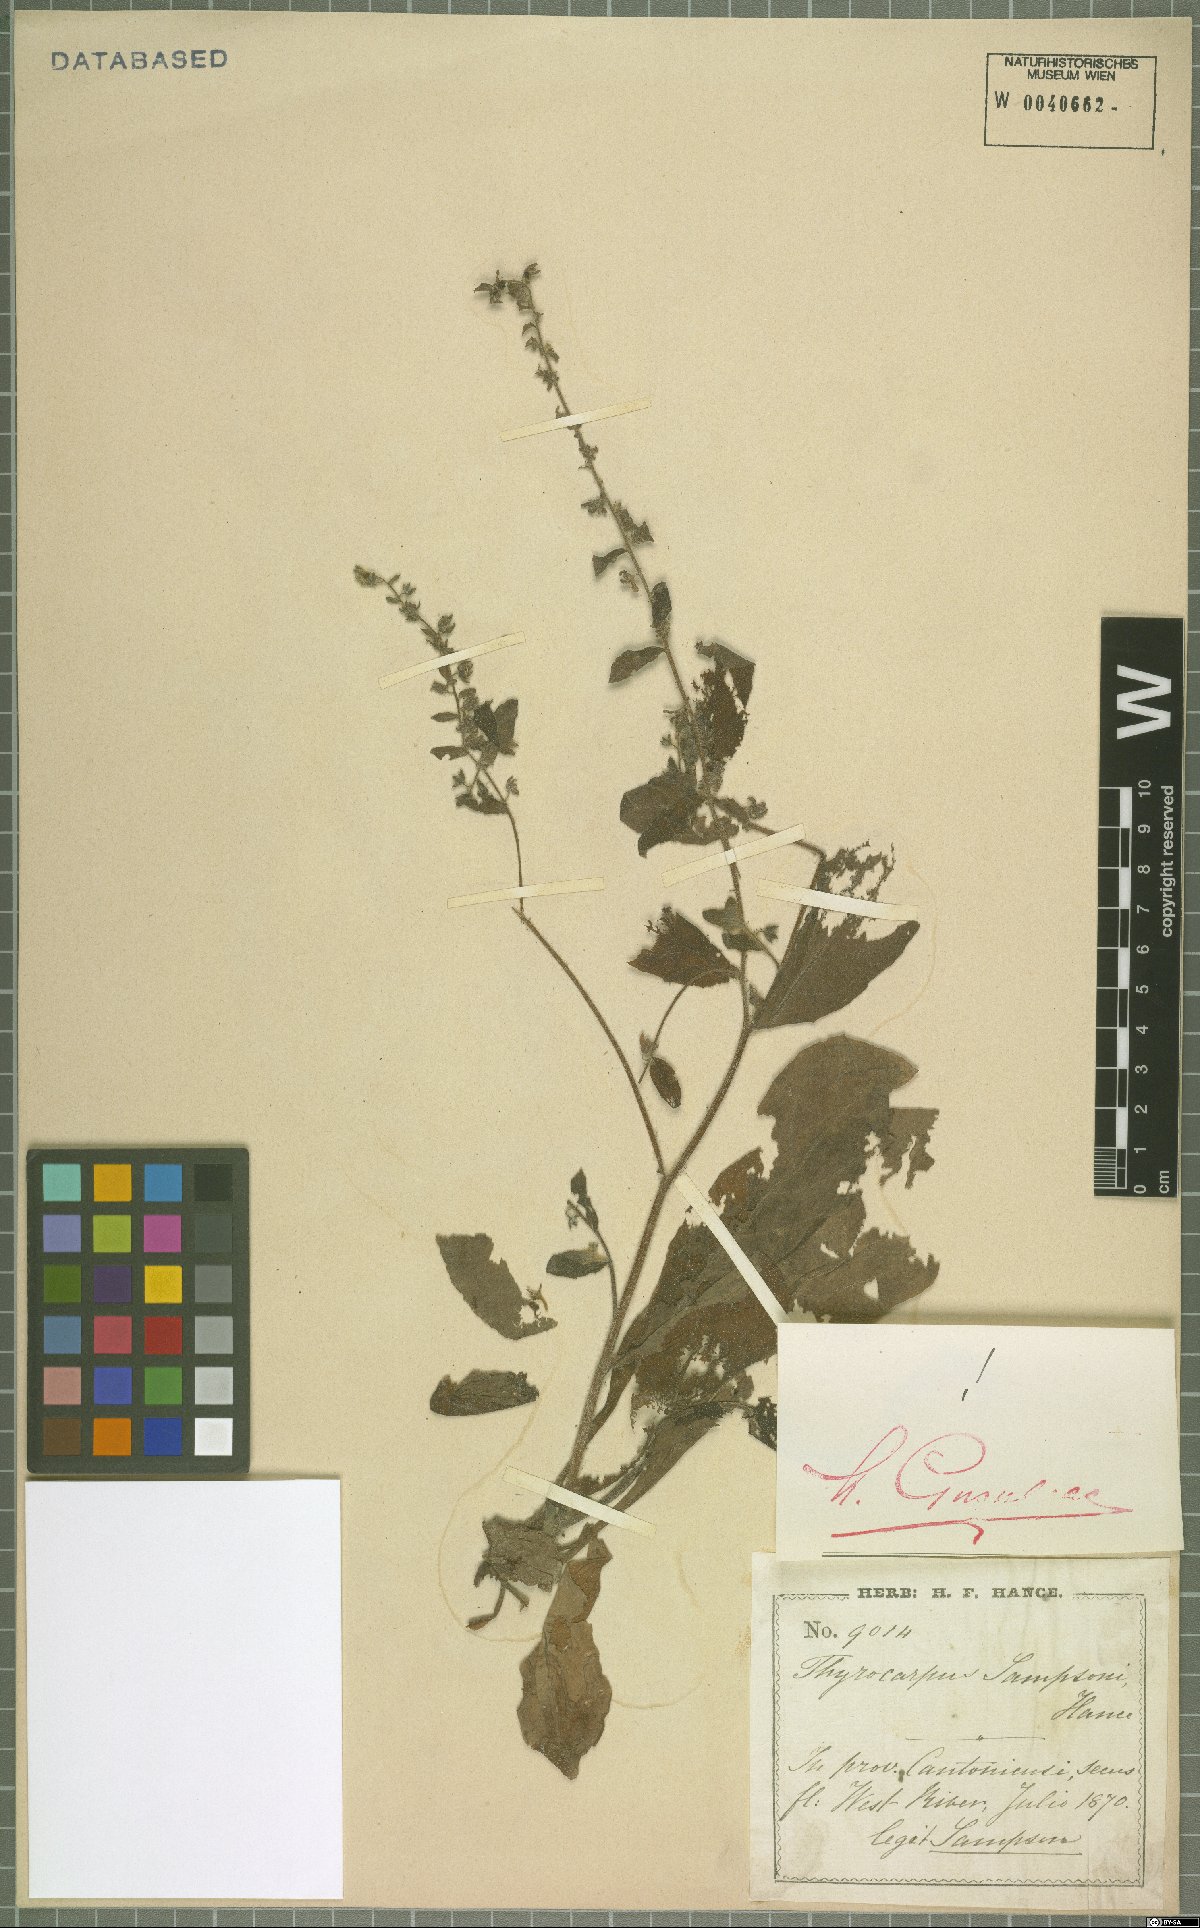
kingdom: Plantae
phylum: Tracheophyta
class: Magnoliopsida
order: Boraginales
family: Boraginaceae
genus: Thyrocarpus
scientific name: Thyrocarpus sampsonii
